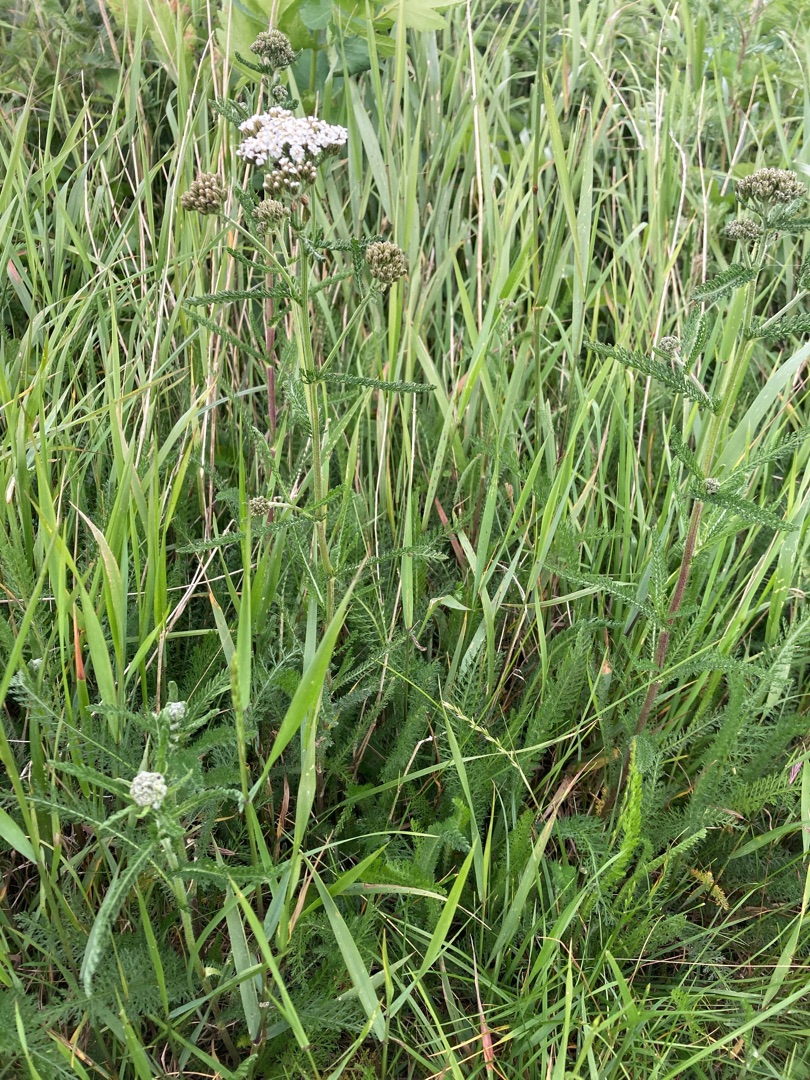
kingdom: Plantae
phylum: Tracheophyta
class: Magnoliopsida
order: Asterales
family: Asteraceae
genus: Achillea
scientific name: Achillea millefolium
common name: Almindelig røllike
